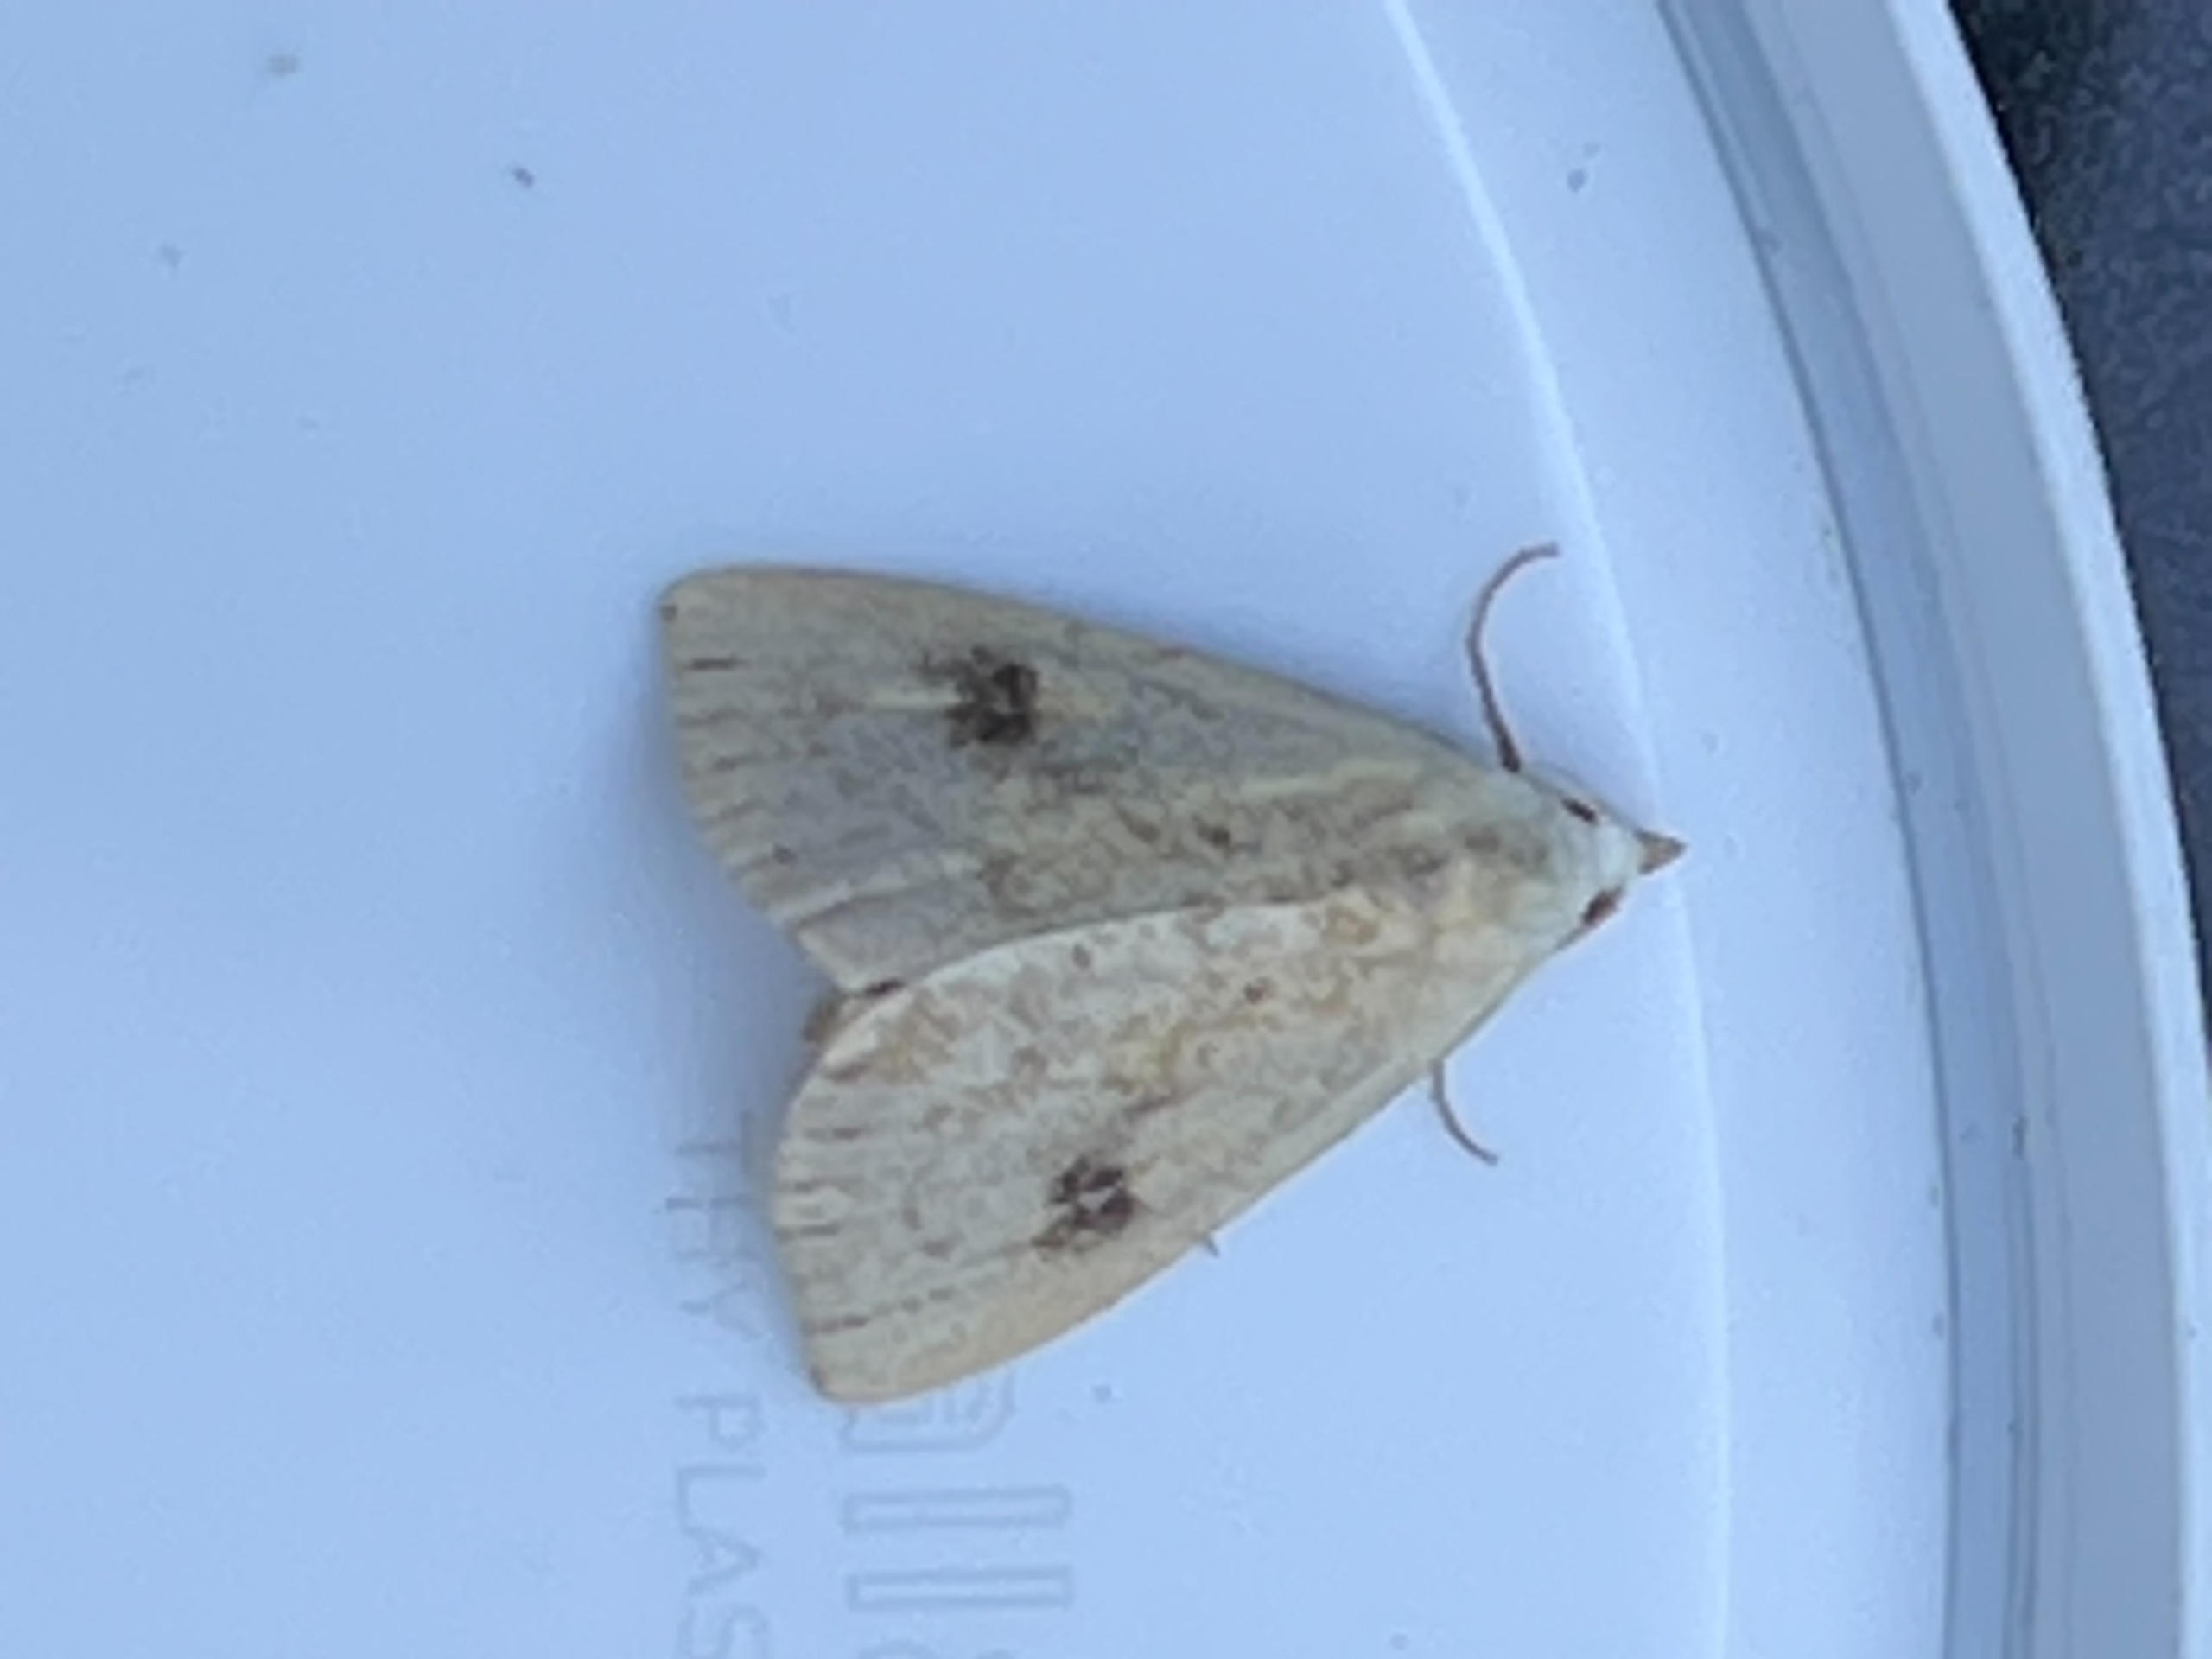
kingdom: Animalia
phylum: Arthropoda
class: Insecta
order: Lepidoptera
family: Erebidae
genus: Rivula
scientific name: Rivula sericealis
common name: Lille å-ugle
